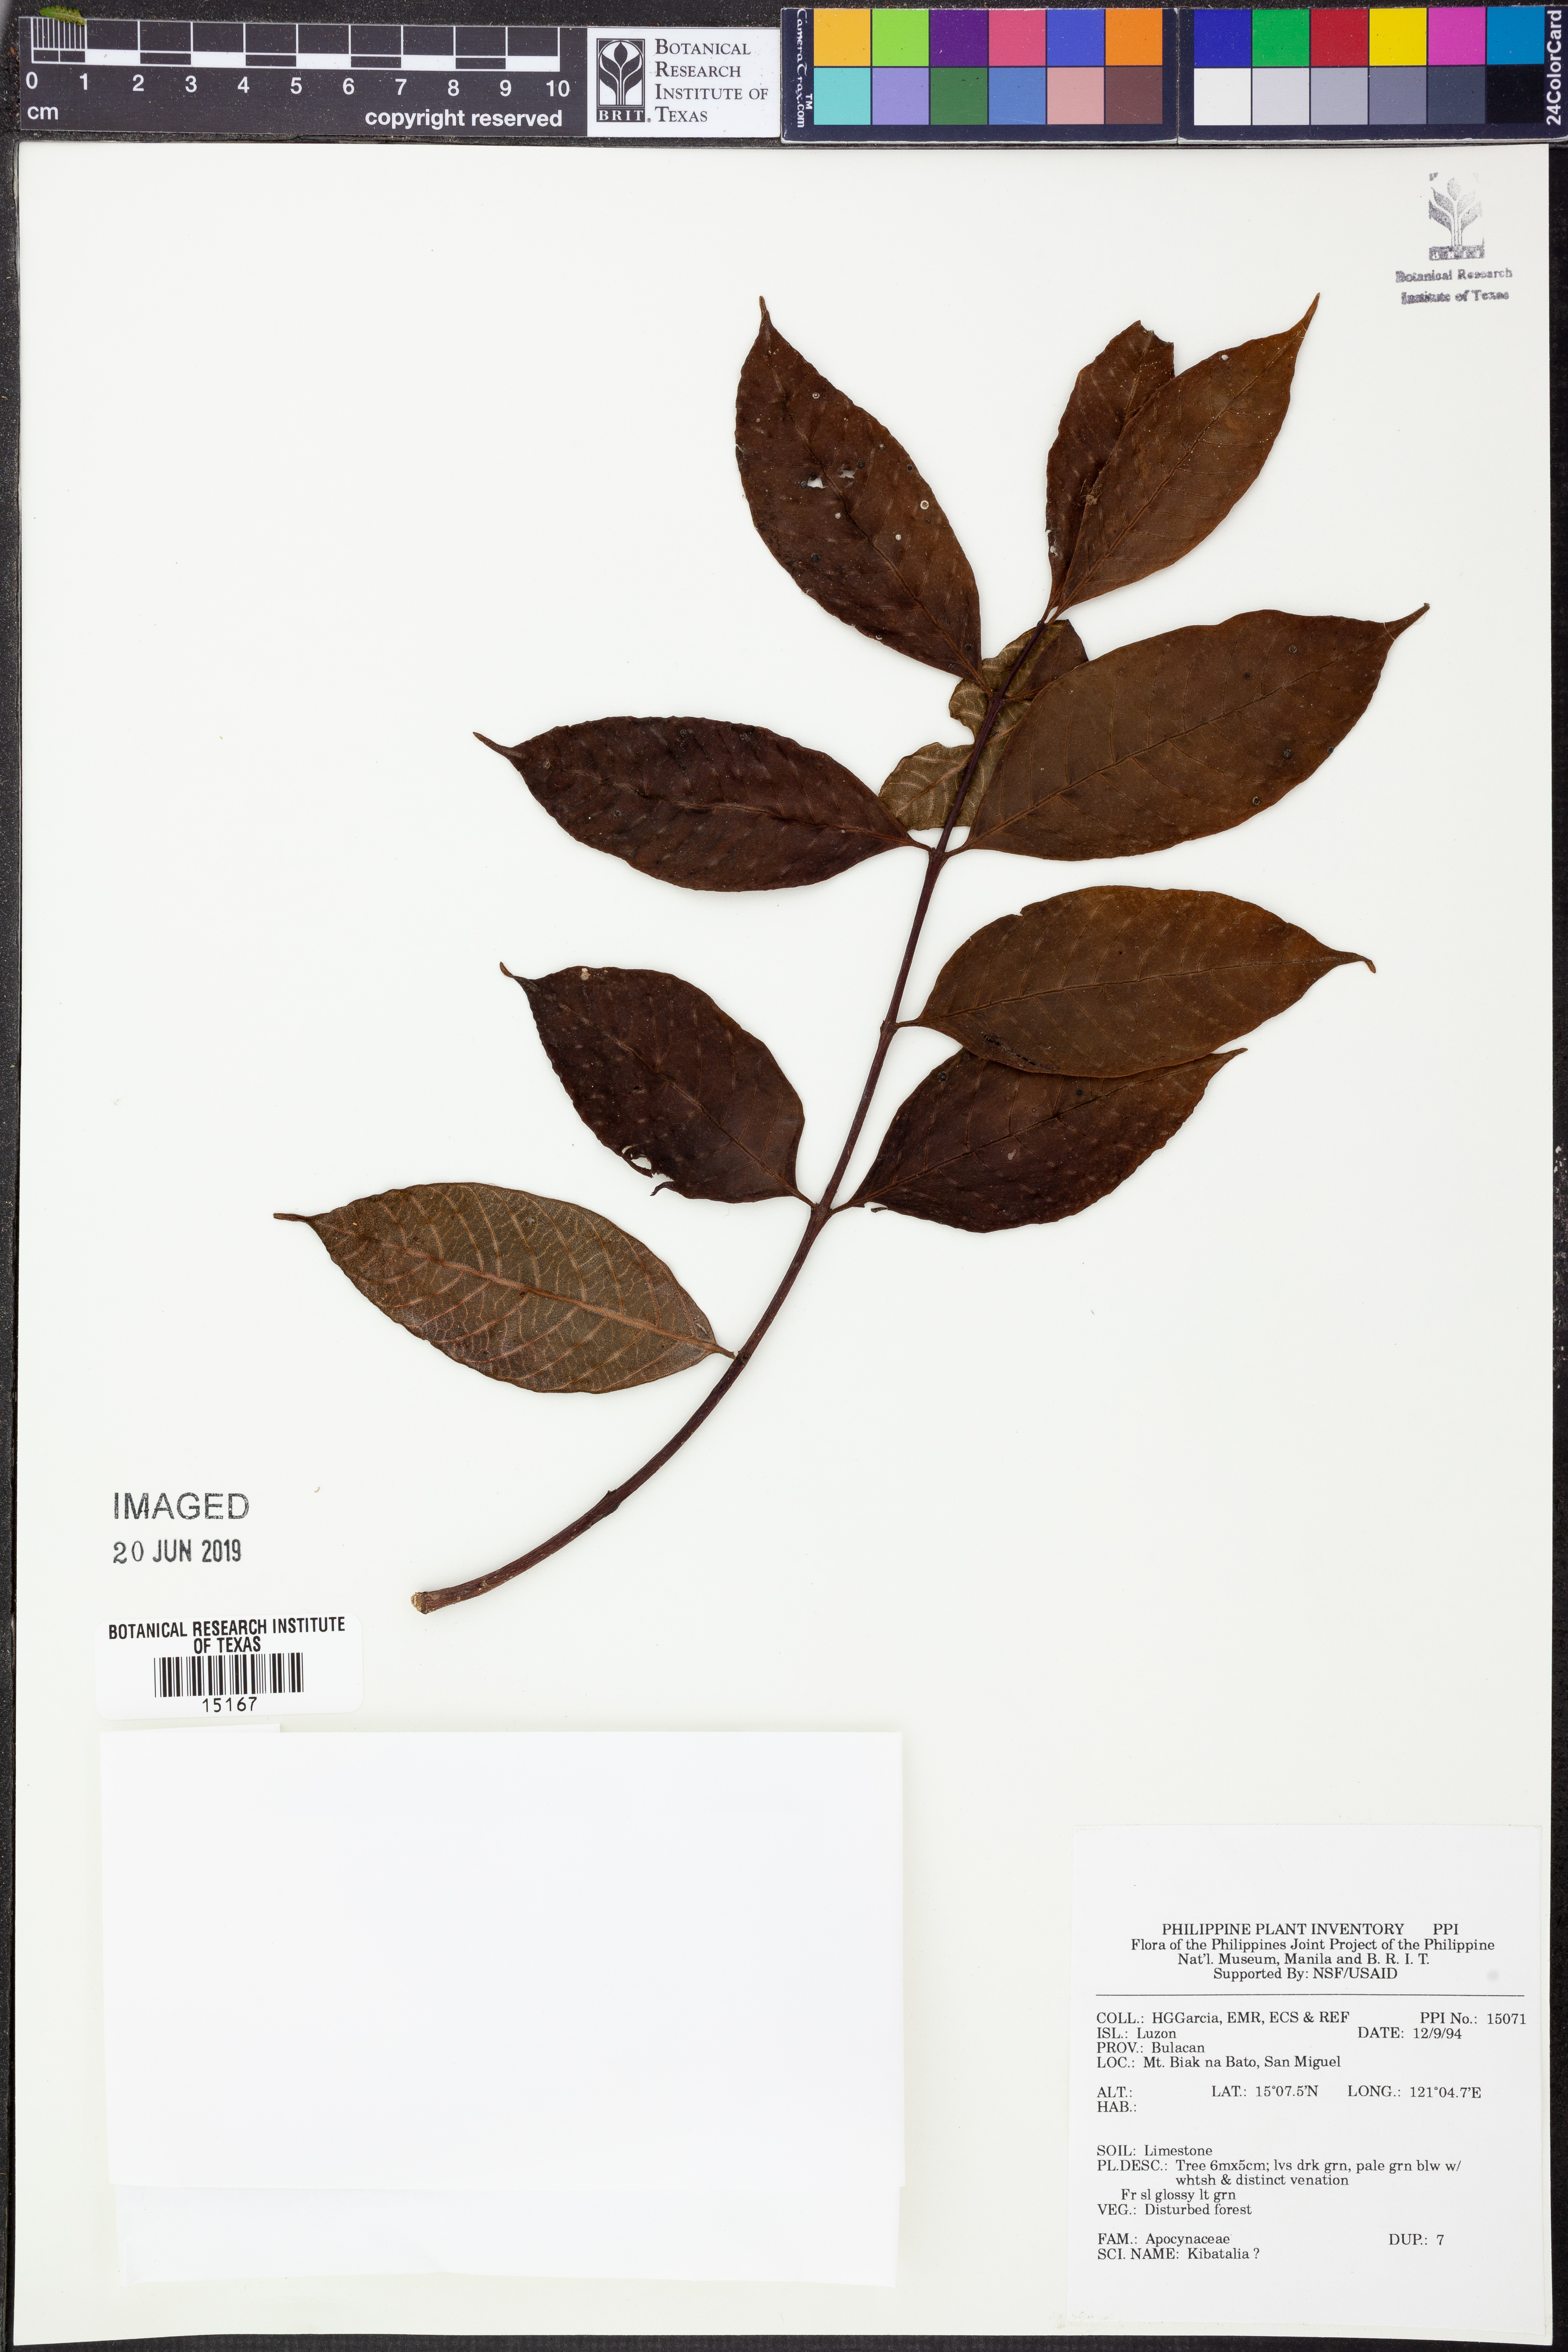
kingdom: Plantae
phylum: Tracheophyta
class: Magnoliopsida
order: Gentianales
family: Apocynaceae
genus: Kibatalia
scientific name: Kibatalia
